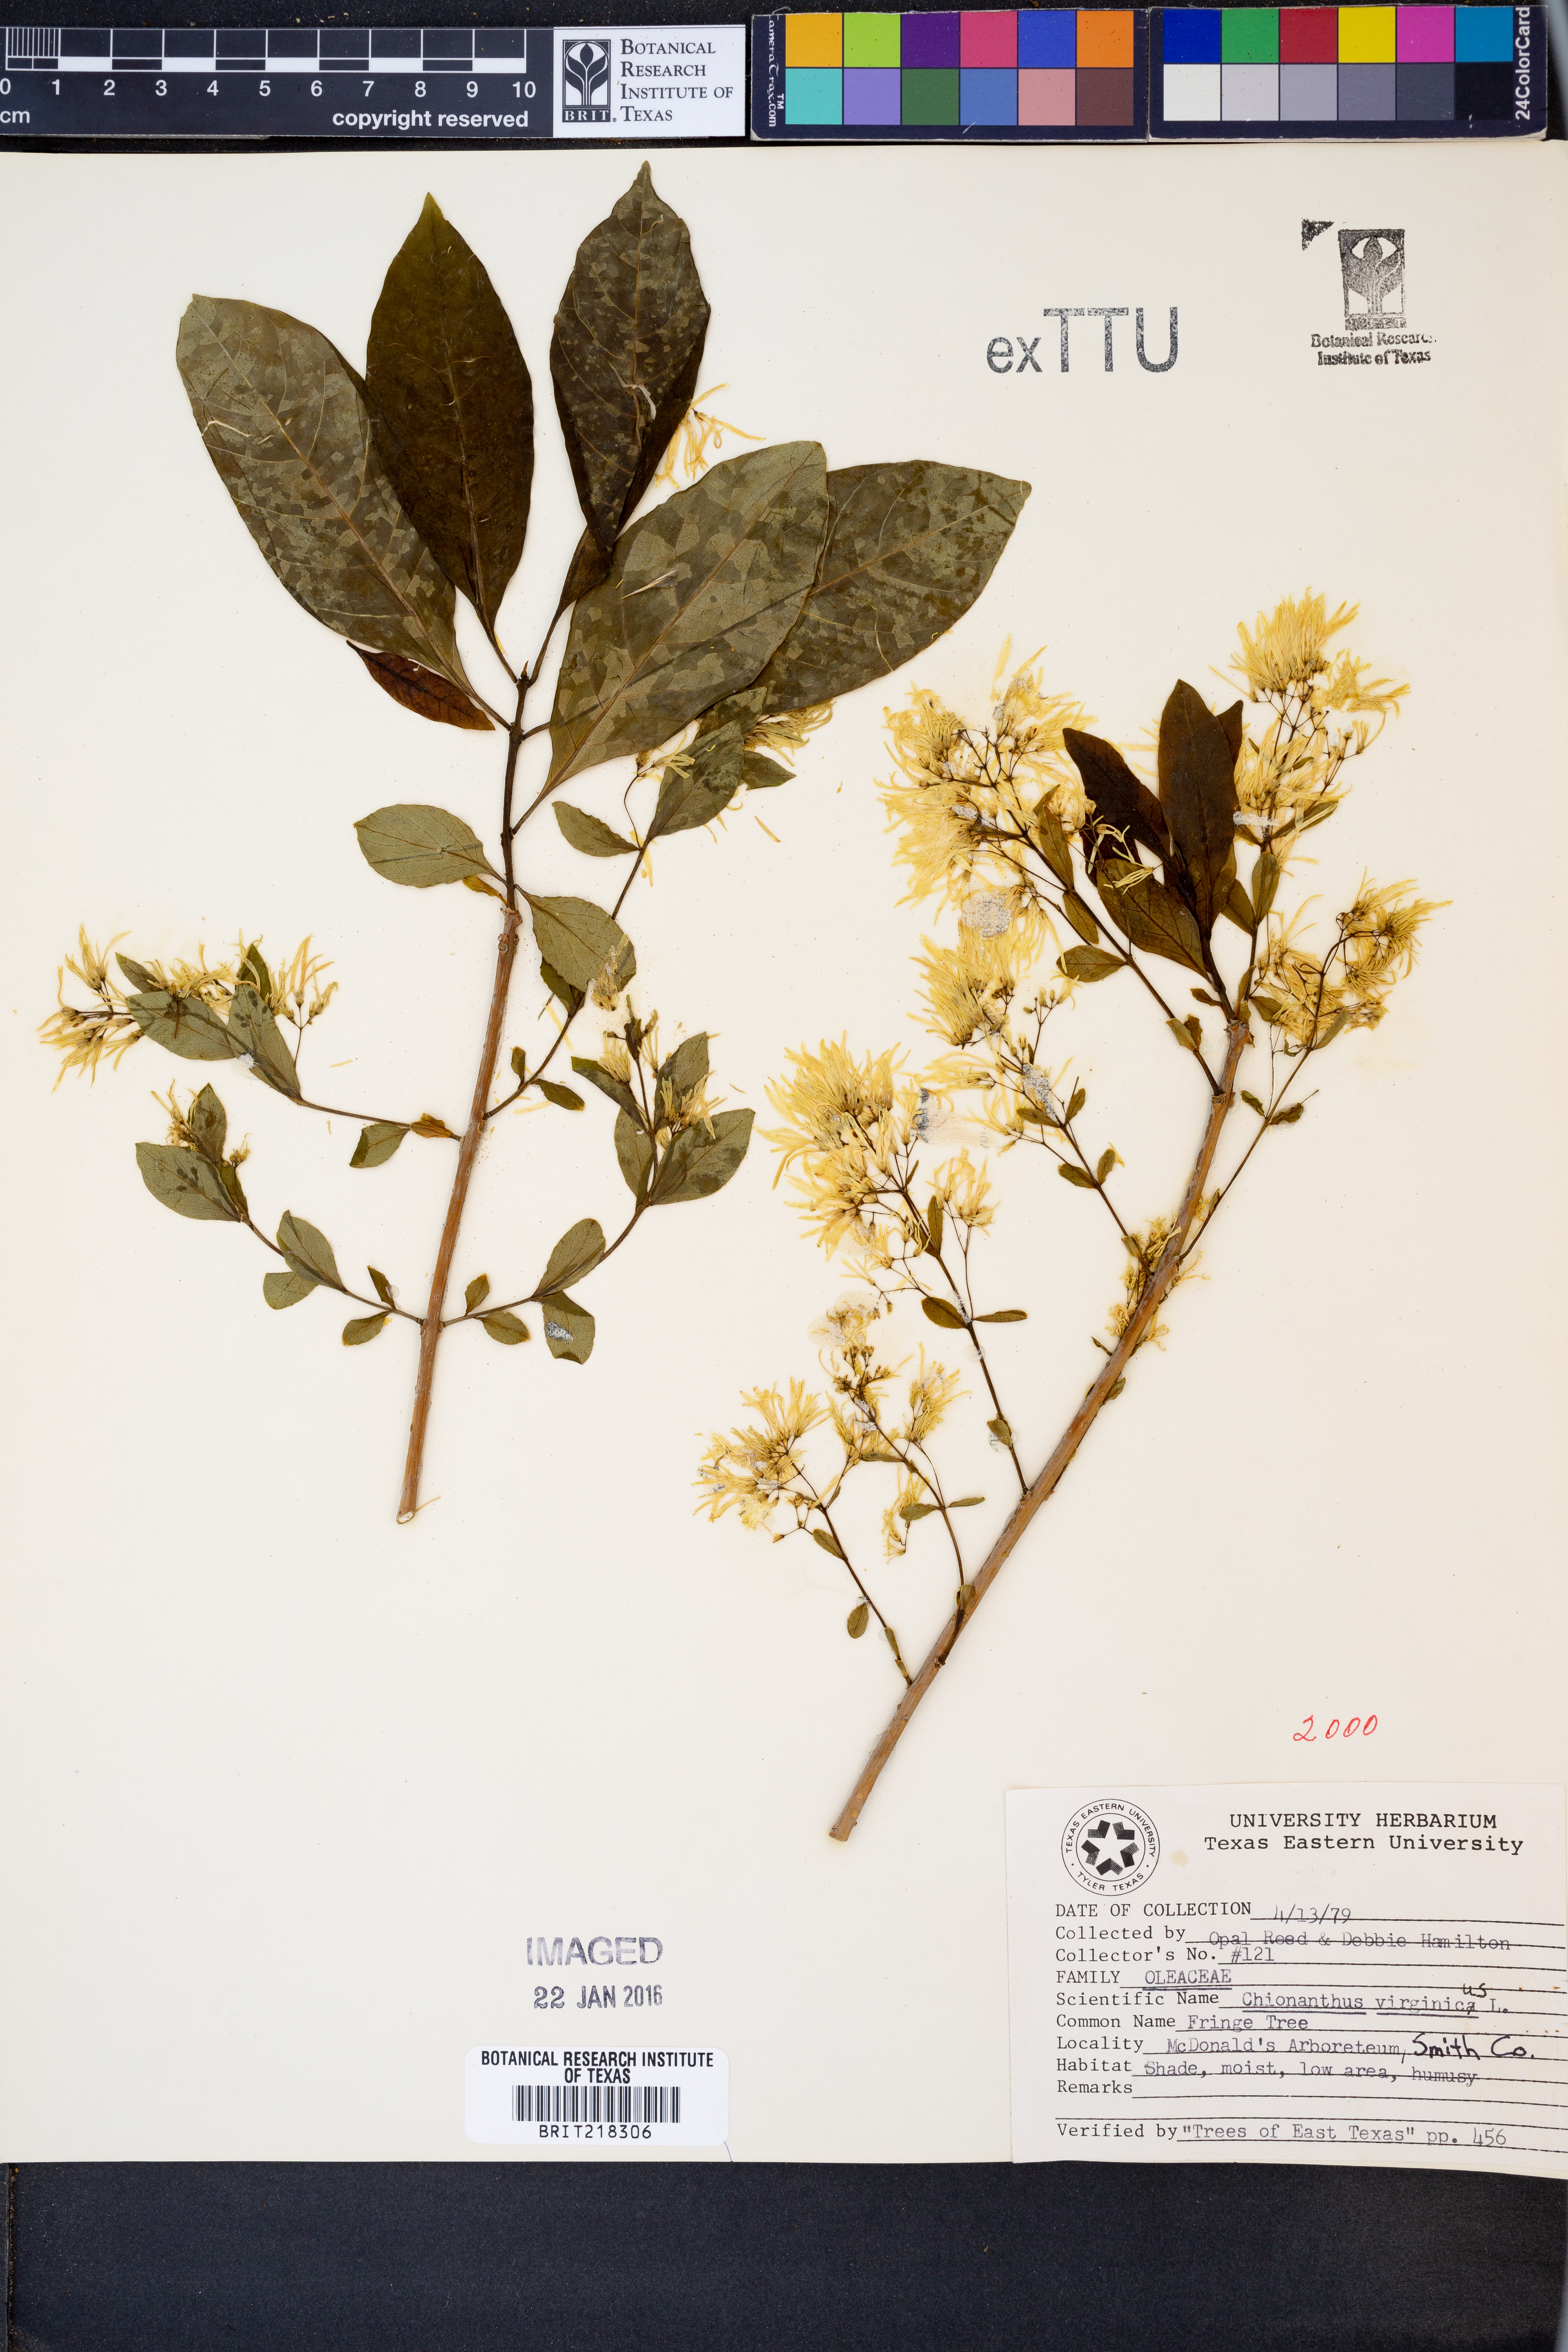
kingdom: Plantae
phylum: Tracheophyta
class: Magnoliopsida
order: Lamiales
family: Oleaceae
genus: Chionanthus
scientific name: Chionanthus virginicus
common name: American fringetree
